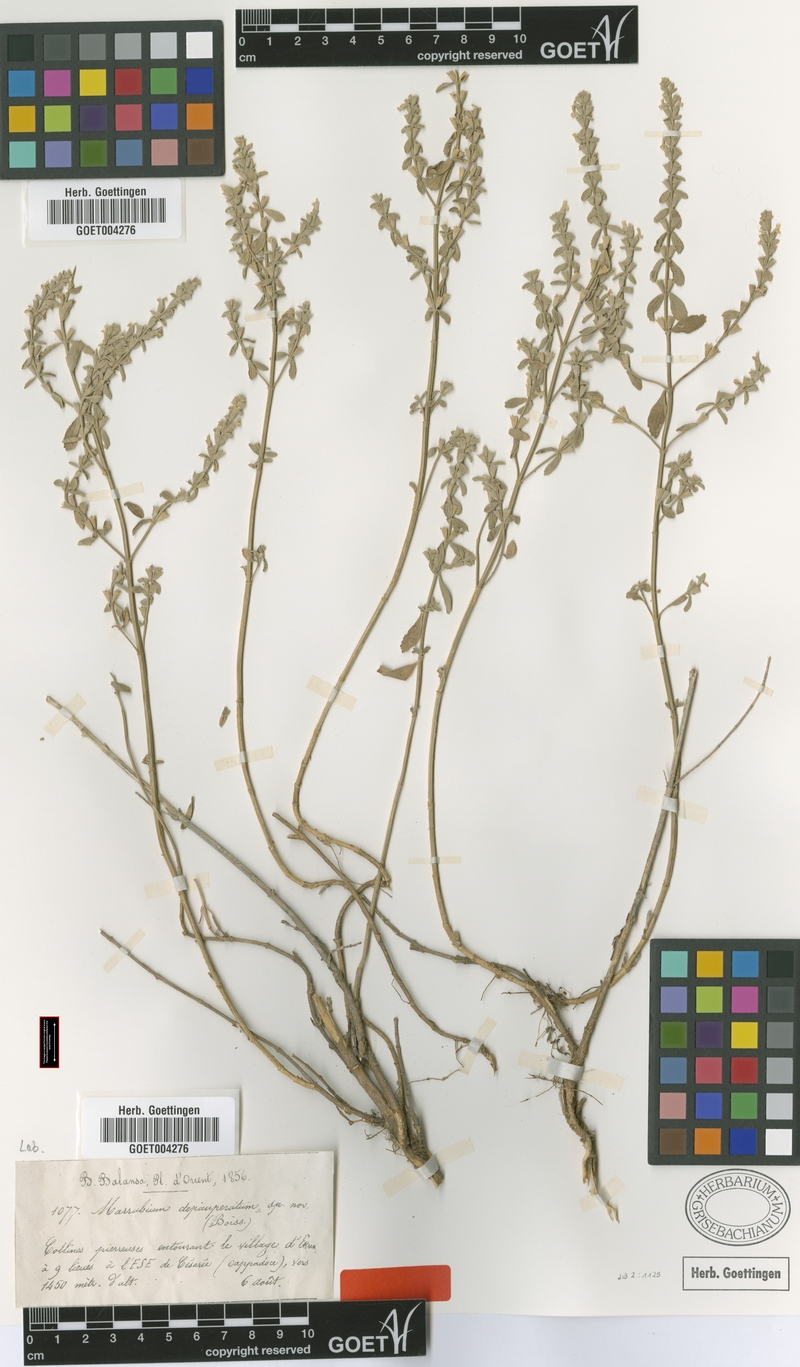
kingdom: Plantae
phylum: Tracheophyta
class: Magnoliopsida
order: Lamiales
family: Lamiaceae
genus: Marrubium
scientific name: Marrubium depauperatum
